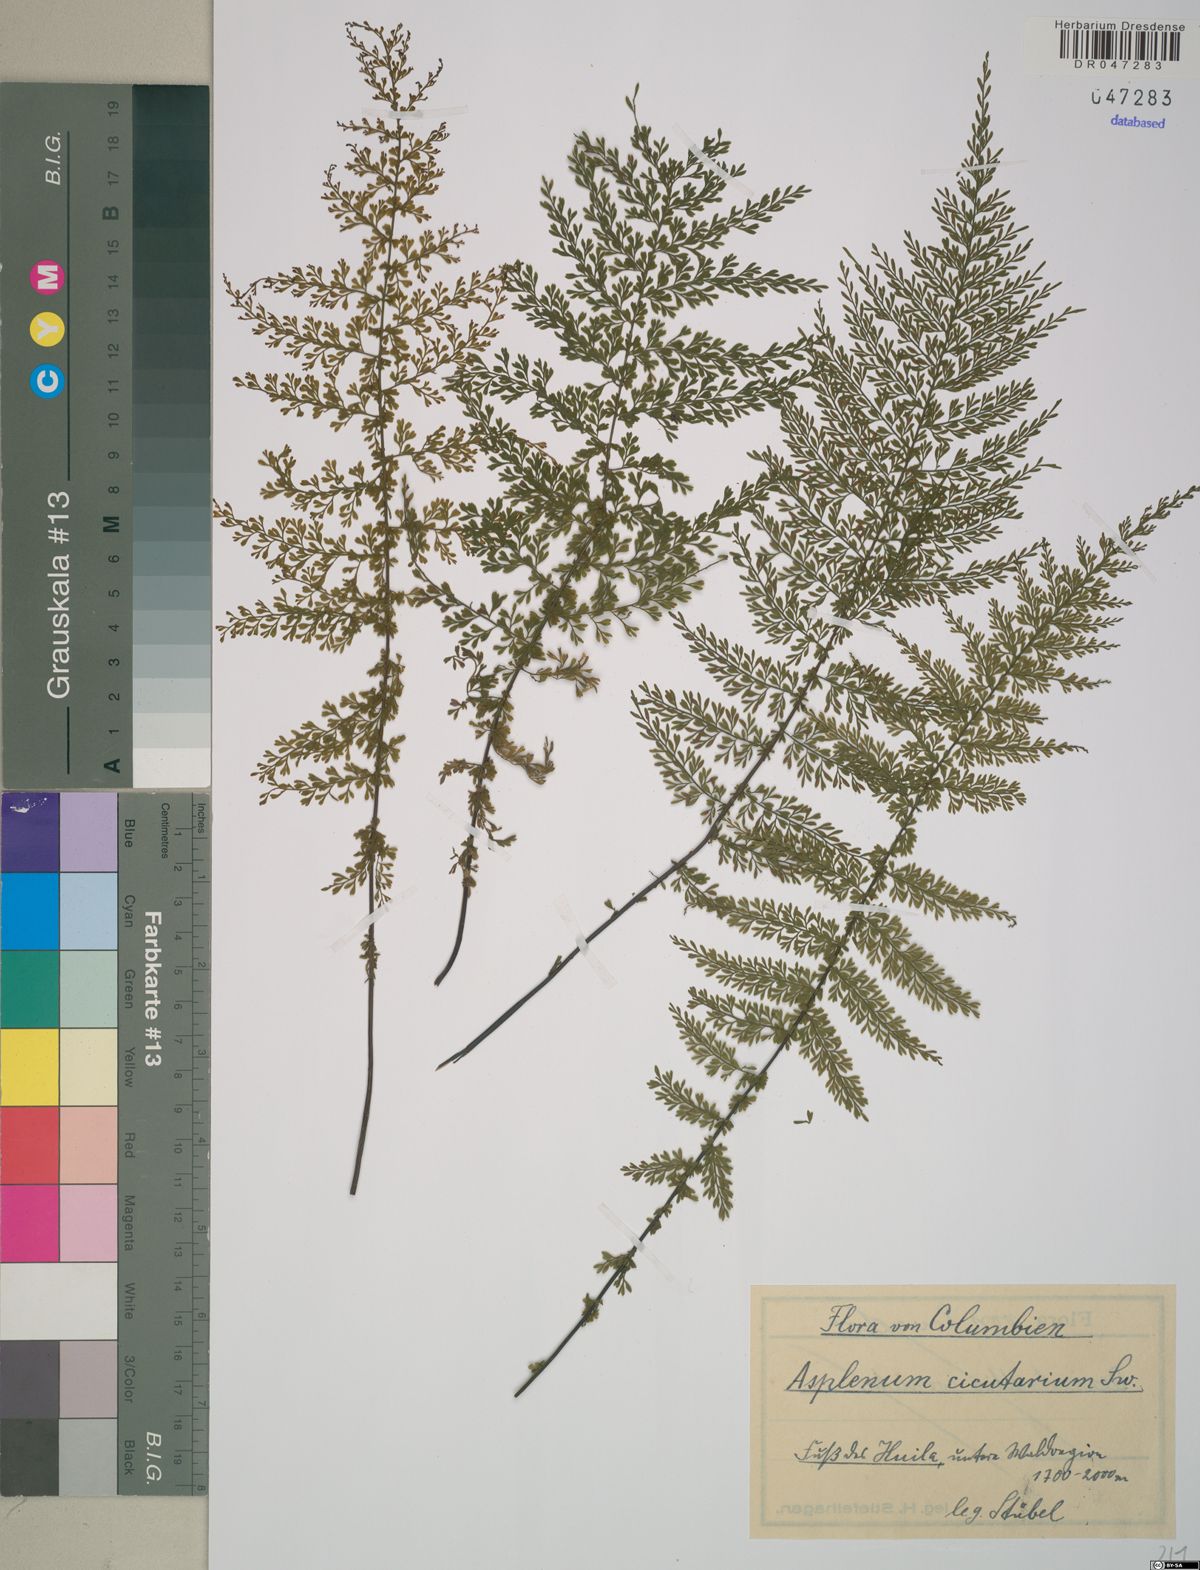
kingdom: Plantae
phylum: Tracheophyta
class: Polypodiopsida
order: Polypodiales
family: Aspleniaceae
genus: Asplenium
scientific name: Asplenium cristatum
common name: Parsley spleenwort
